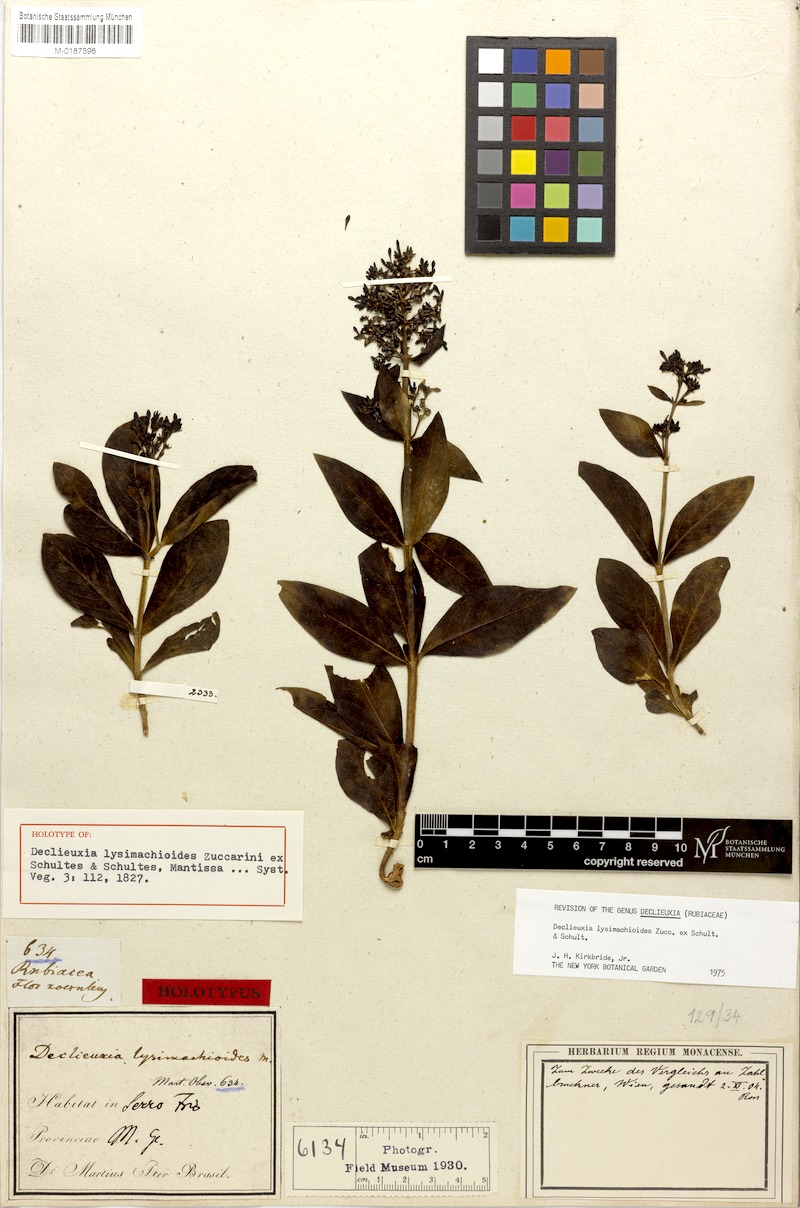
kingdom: Plantae
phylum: Tracheophyta
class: Magnoliopsida
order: Gentianales
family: Rubiaceae
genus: Declieuxia
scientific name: Declieuxia lysimachioides
